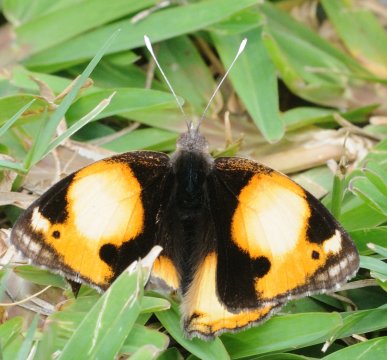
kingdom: Animalia
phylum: Arthropoda
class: Insecta
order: Lepidoptera
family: Nymphalidae
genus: Junonia
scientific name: Junonia hierta
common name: Yellow Pansy
